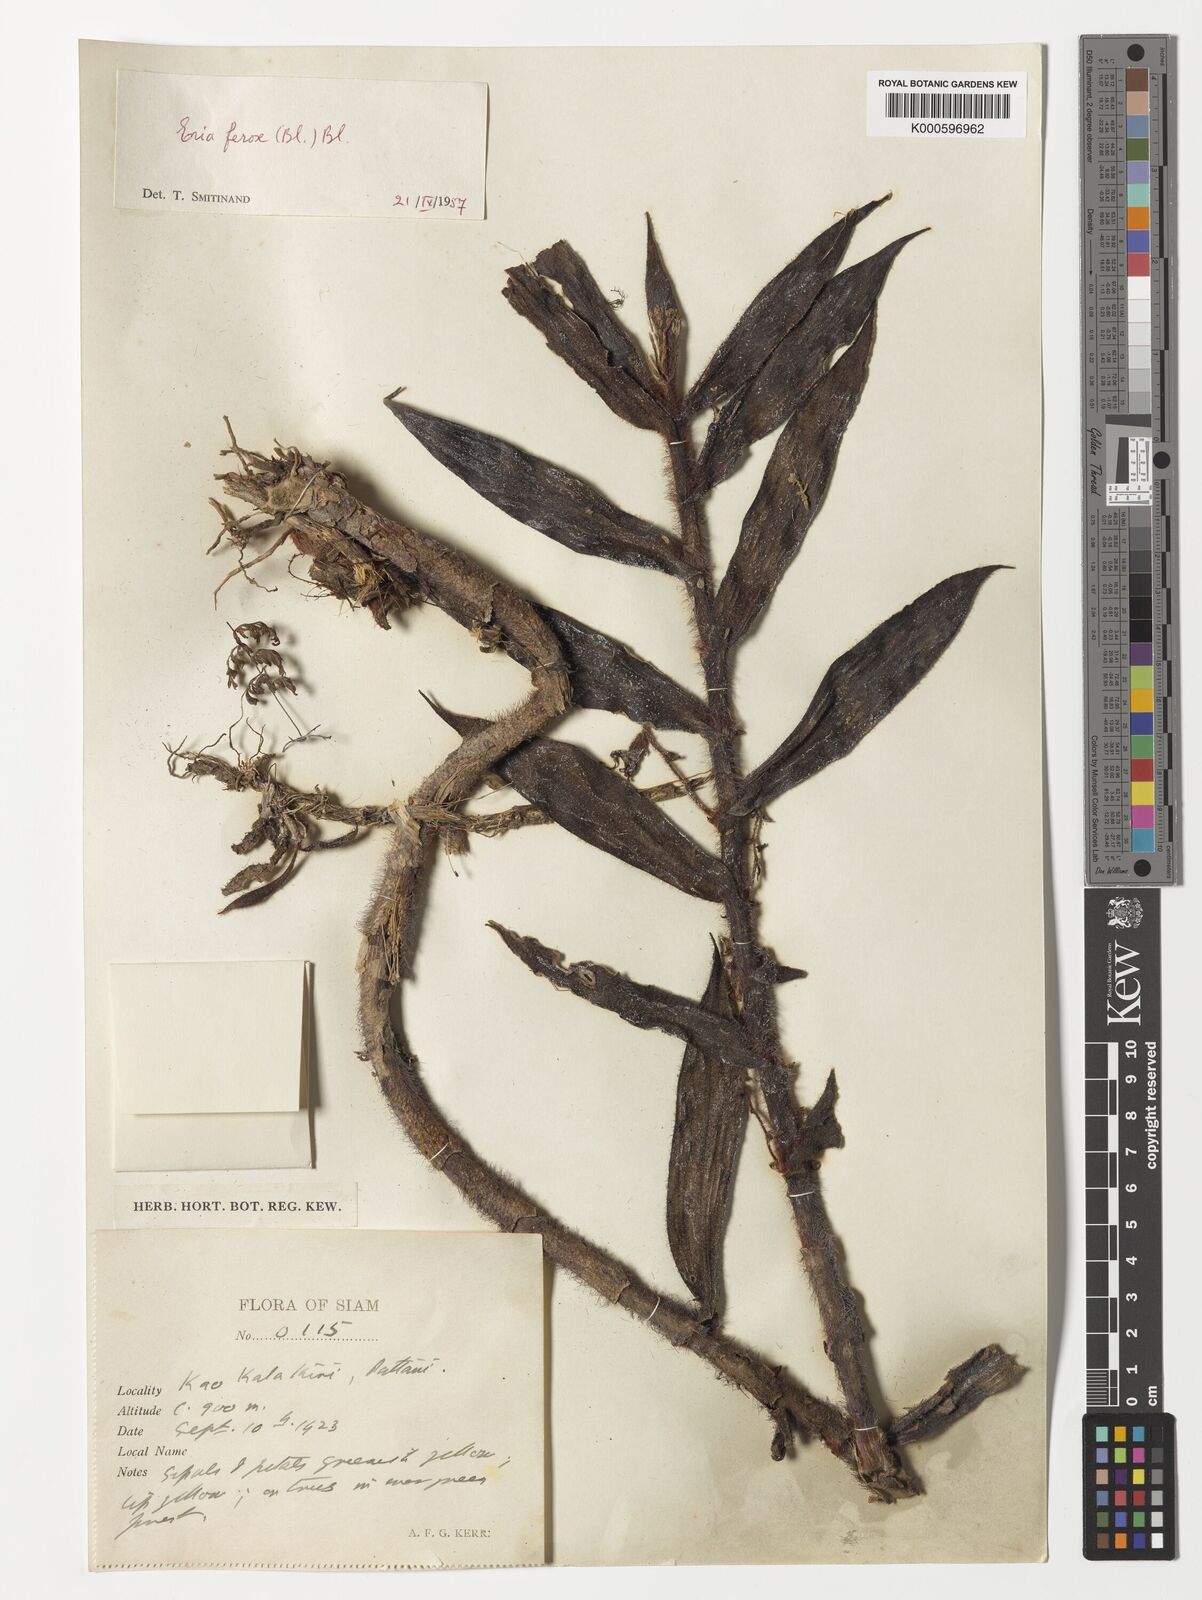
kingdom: Plantae
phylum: Tracheophyta
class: Liliopsida
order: Asparagales
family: Orchidaceae
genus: Trichotosia
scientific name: Trichotosia ferox
